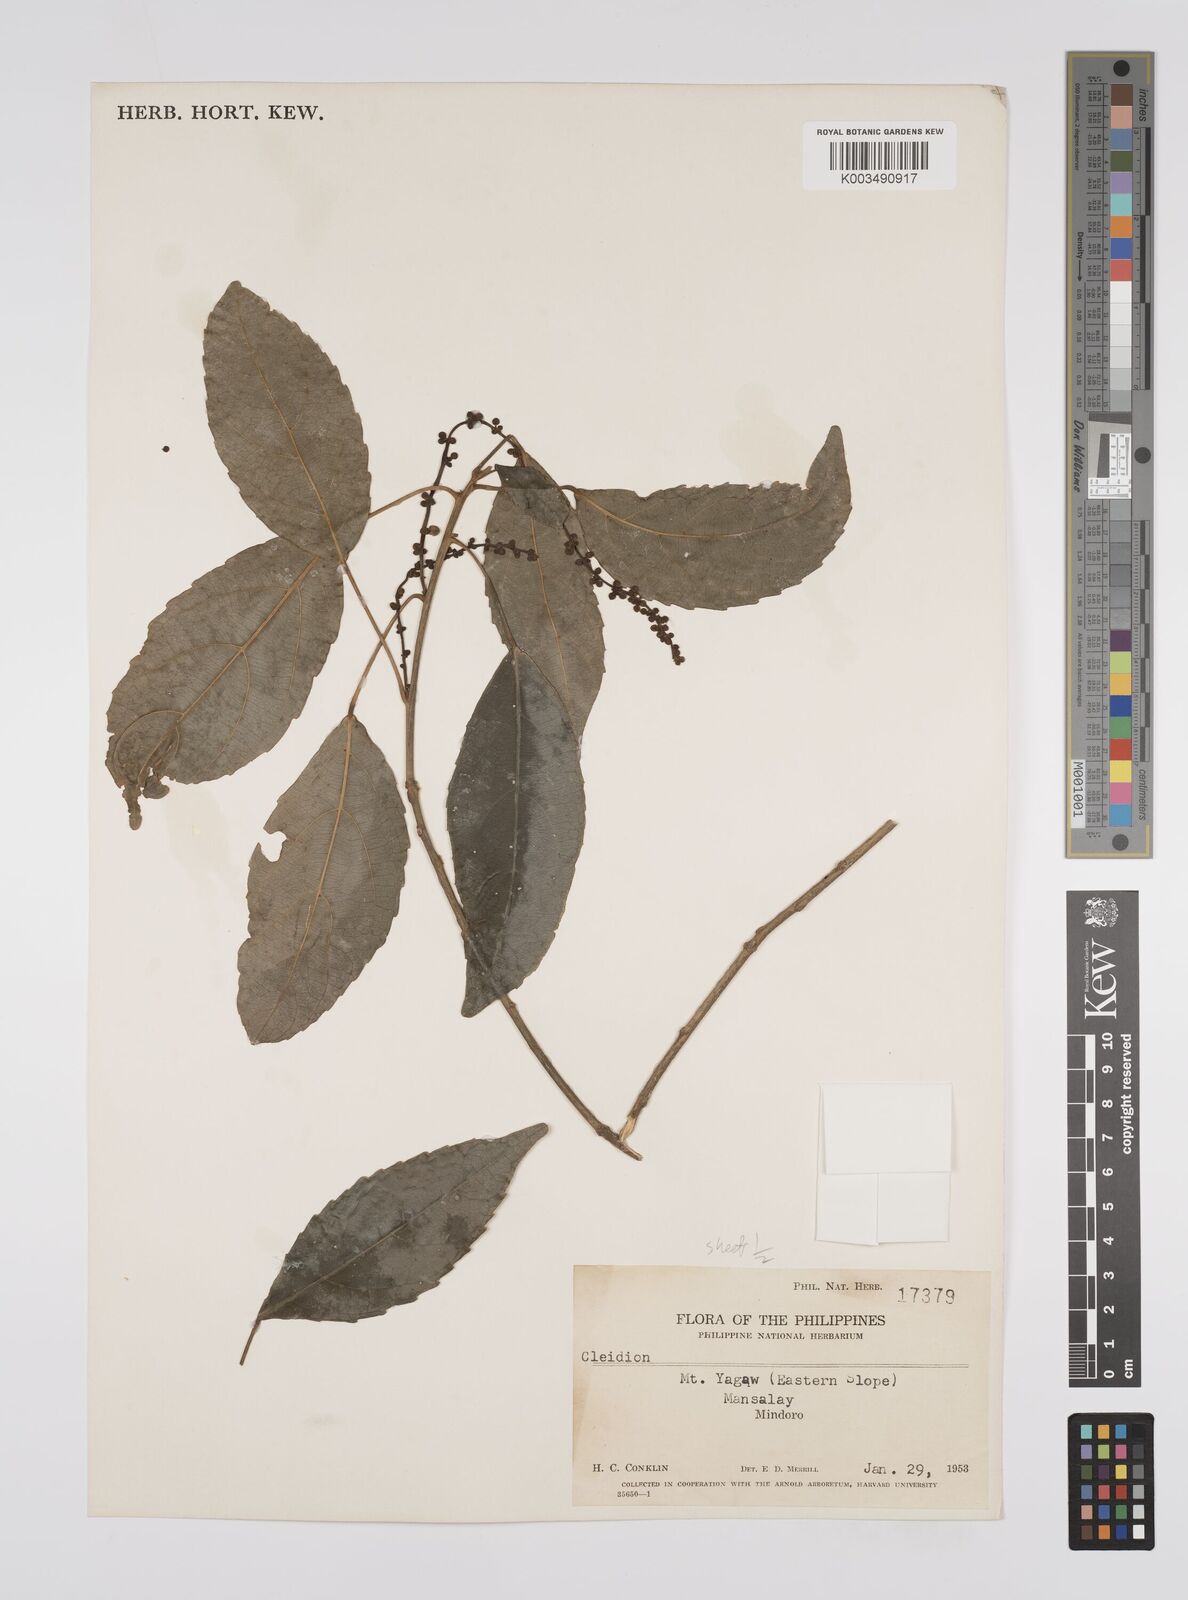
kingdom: Plantae
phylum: Tracheophyta
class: Magnoliopsida
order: Malpighiales
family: Euphorbiaceae
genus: Cleidion
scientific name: Cleidion javanicum
